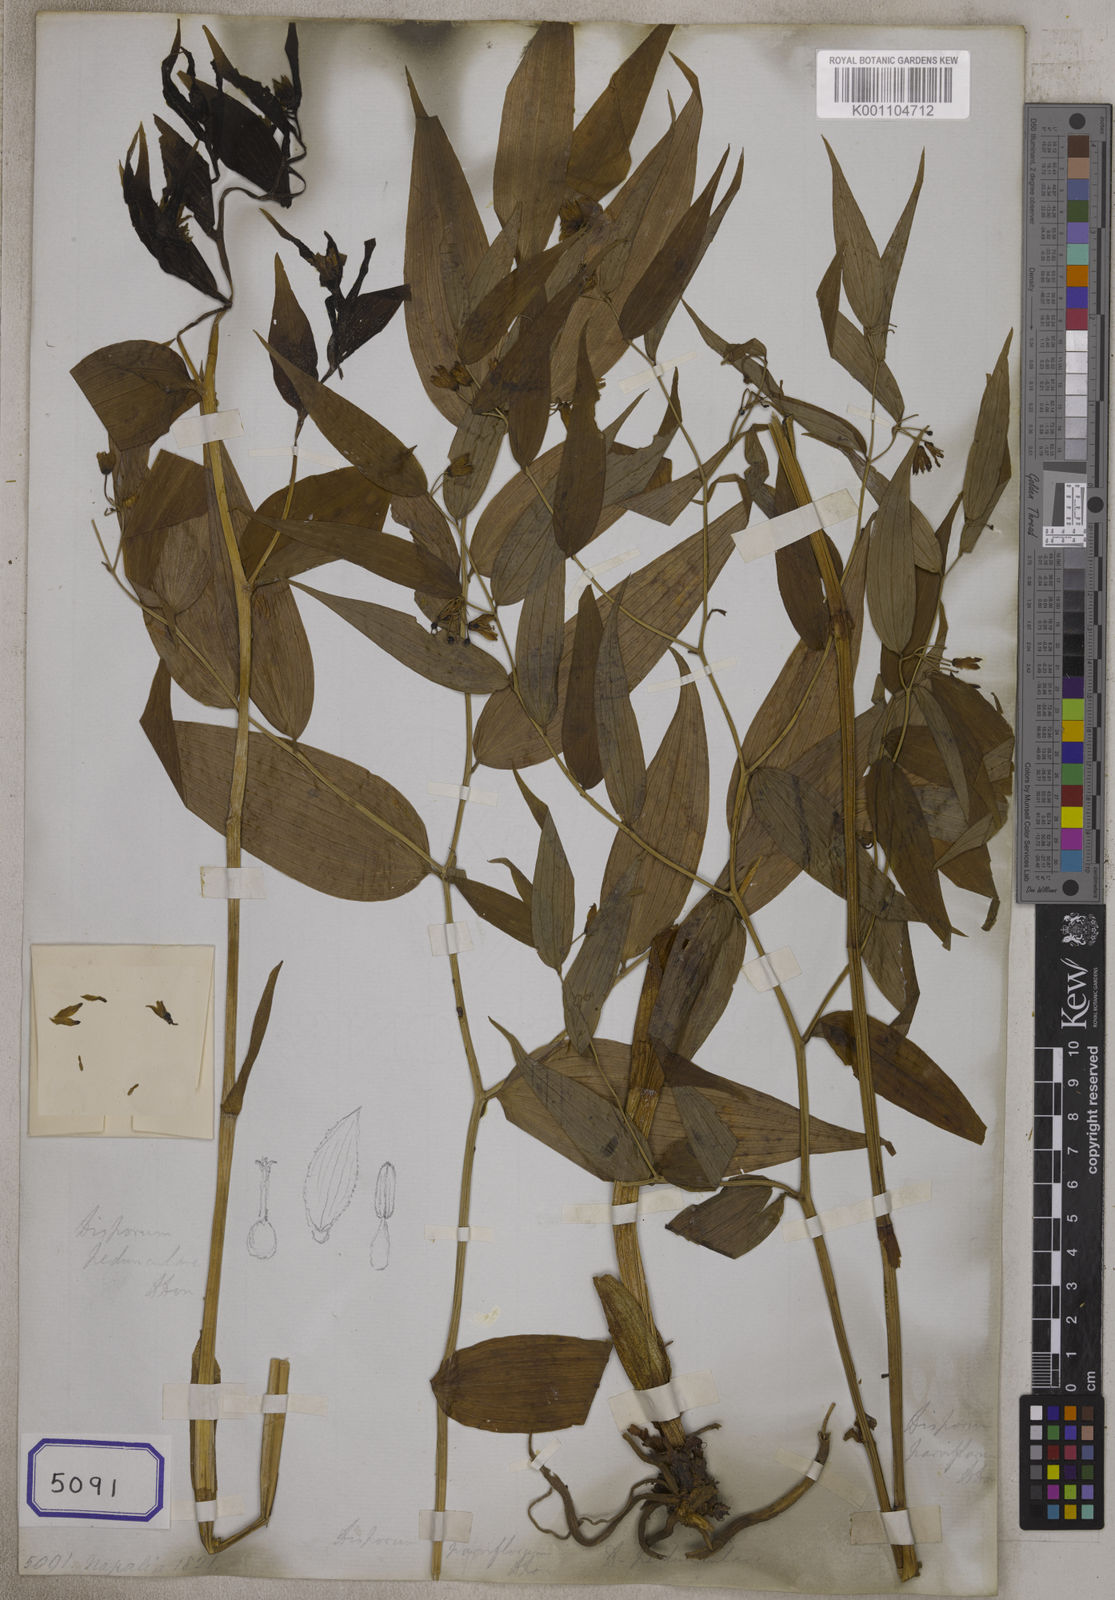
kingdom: Plantae
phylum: Tracheophyta
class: Liliopsida
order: Liliales
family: Colchicaceae
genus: Disporum
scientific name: Disporum cantoniense
